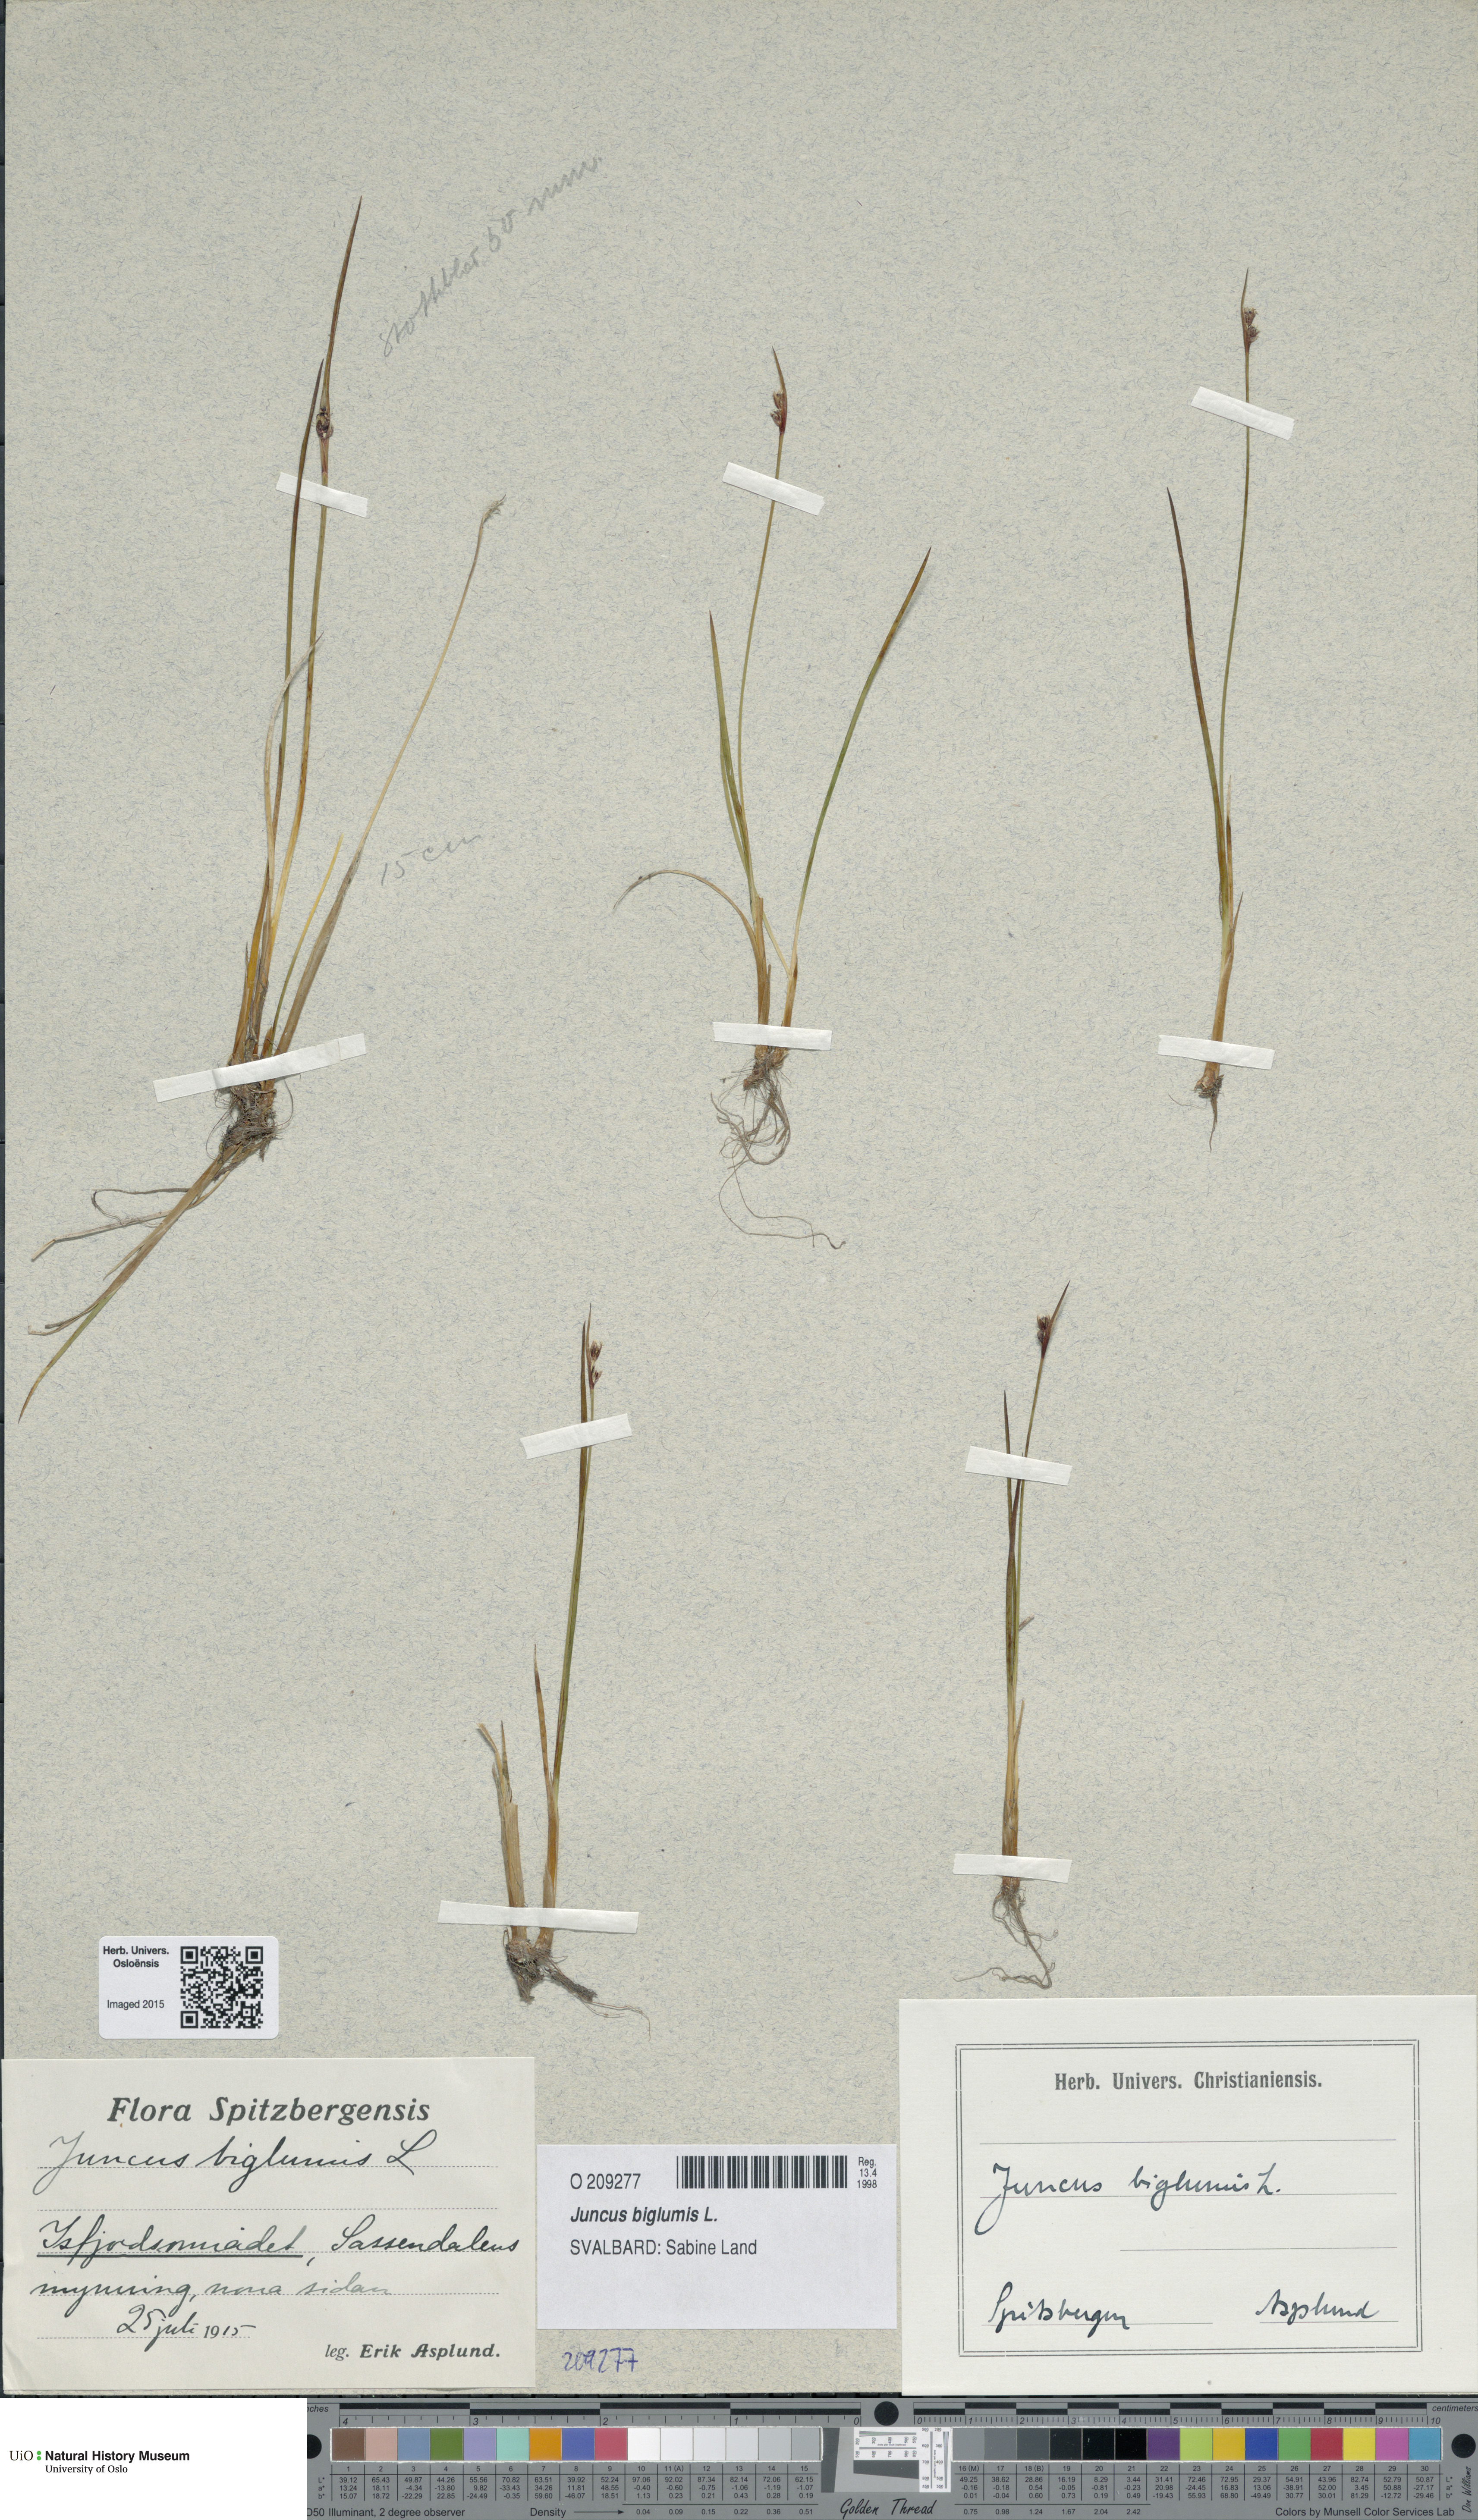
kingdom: Plantae
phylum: Tracheophyta
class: Liliopsida
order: Poales
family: Juncaceae
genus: Juncus
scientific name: Juncus biglumis
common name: Two-flowered rush
